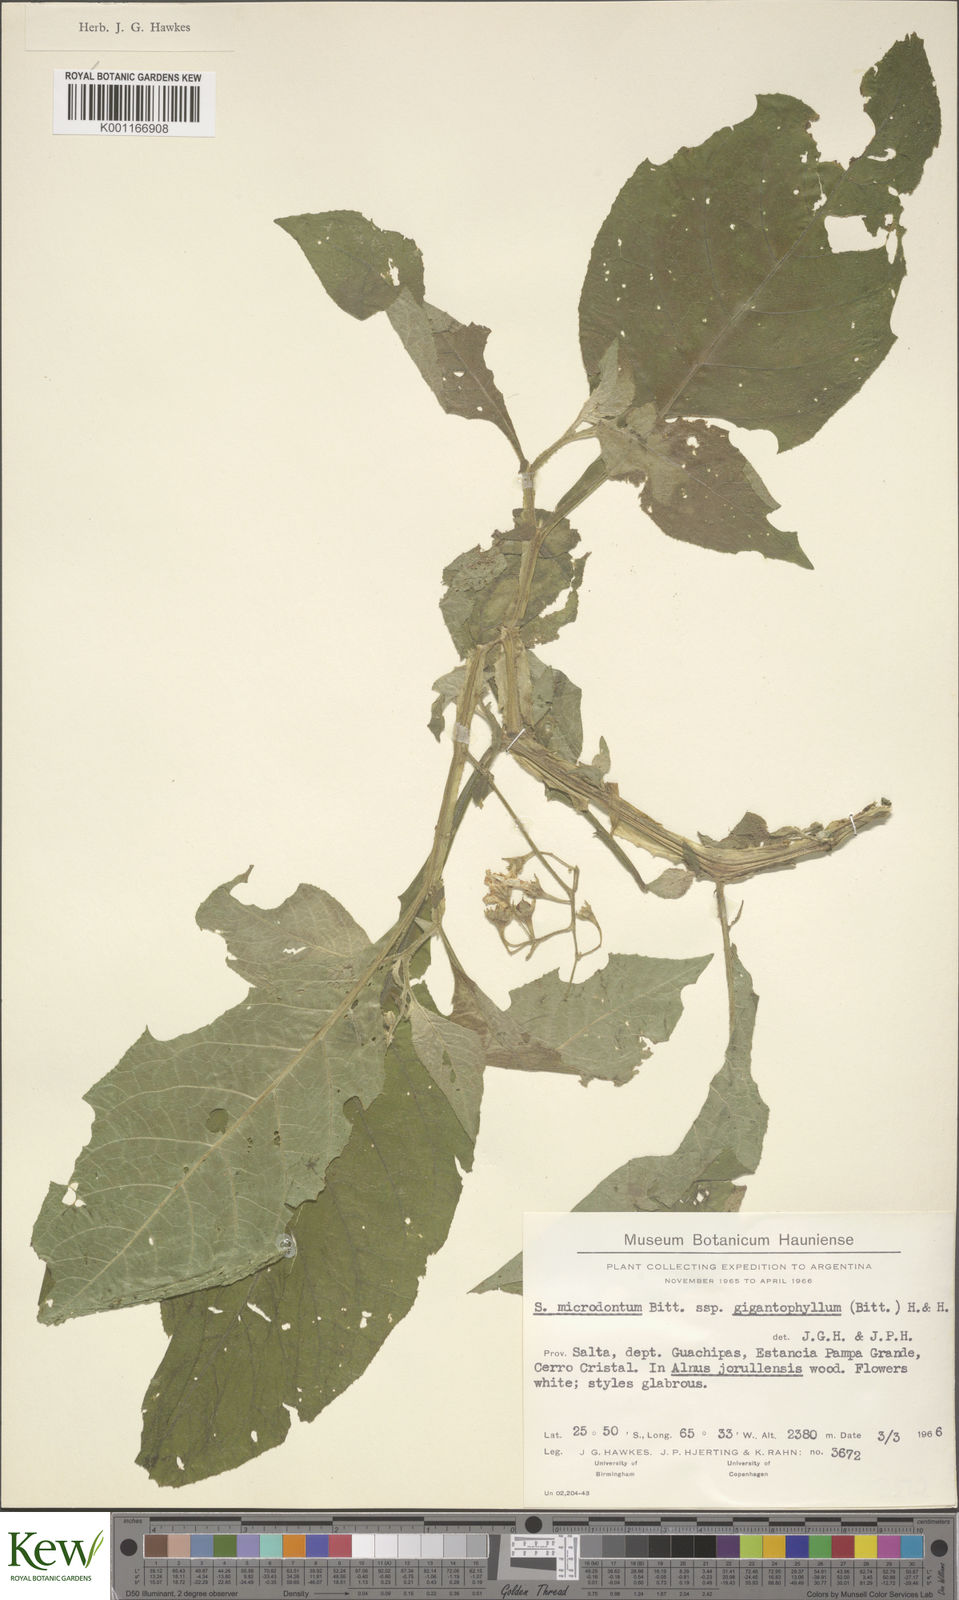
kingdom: Plantae
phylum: Tracheophyta
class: Magnoliopsida
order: Solanales
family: Solanaceae
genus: Solanum
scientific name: Solanum microdontum
